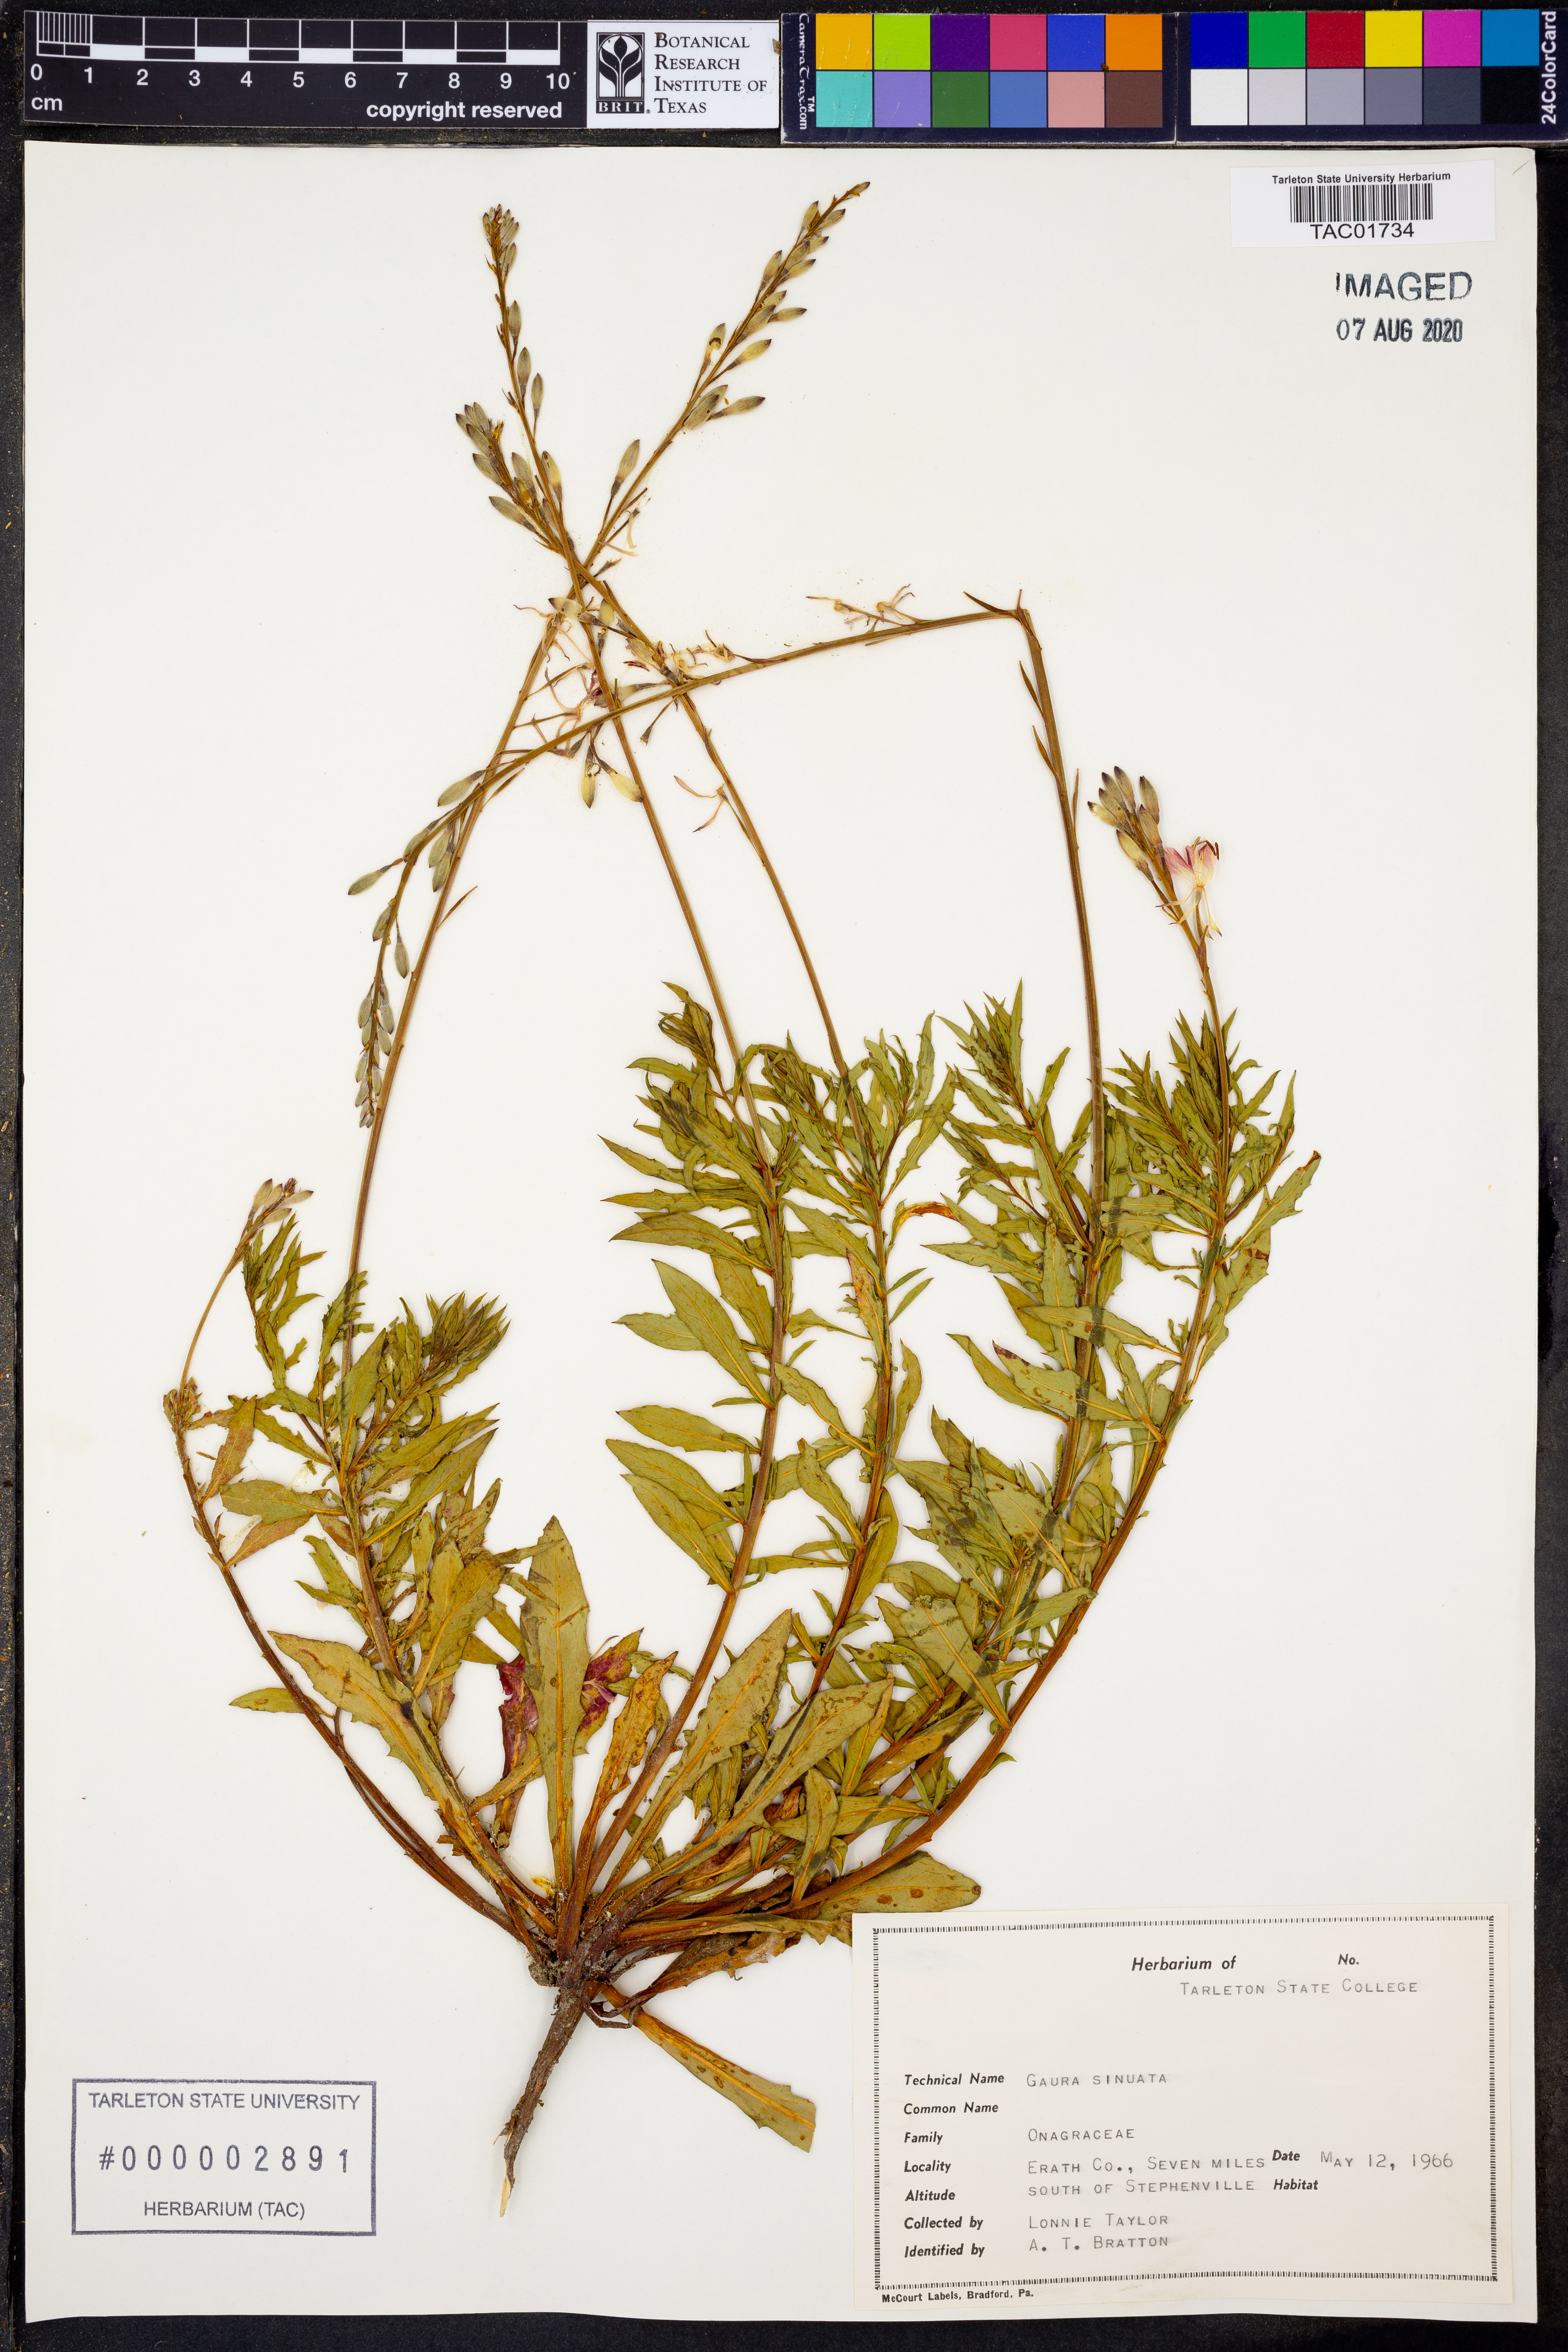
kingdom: Plantae
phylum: Tracheophyta
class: Magnoliopsida
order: Myrtales
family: Onagraceae
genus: Oenothera
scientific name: Oenothera sinuosa
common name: Wavyleaf beeblossom
